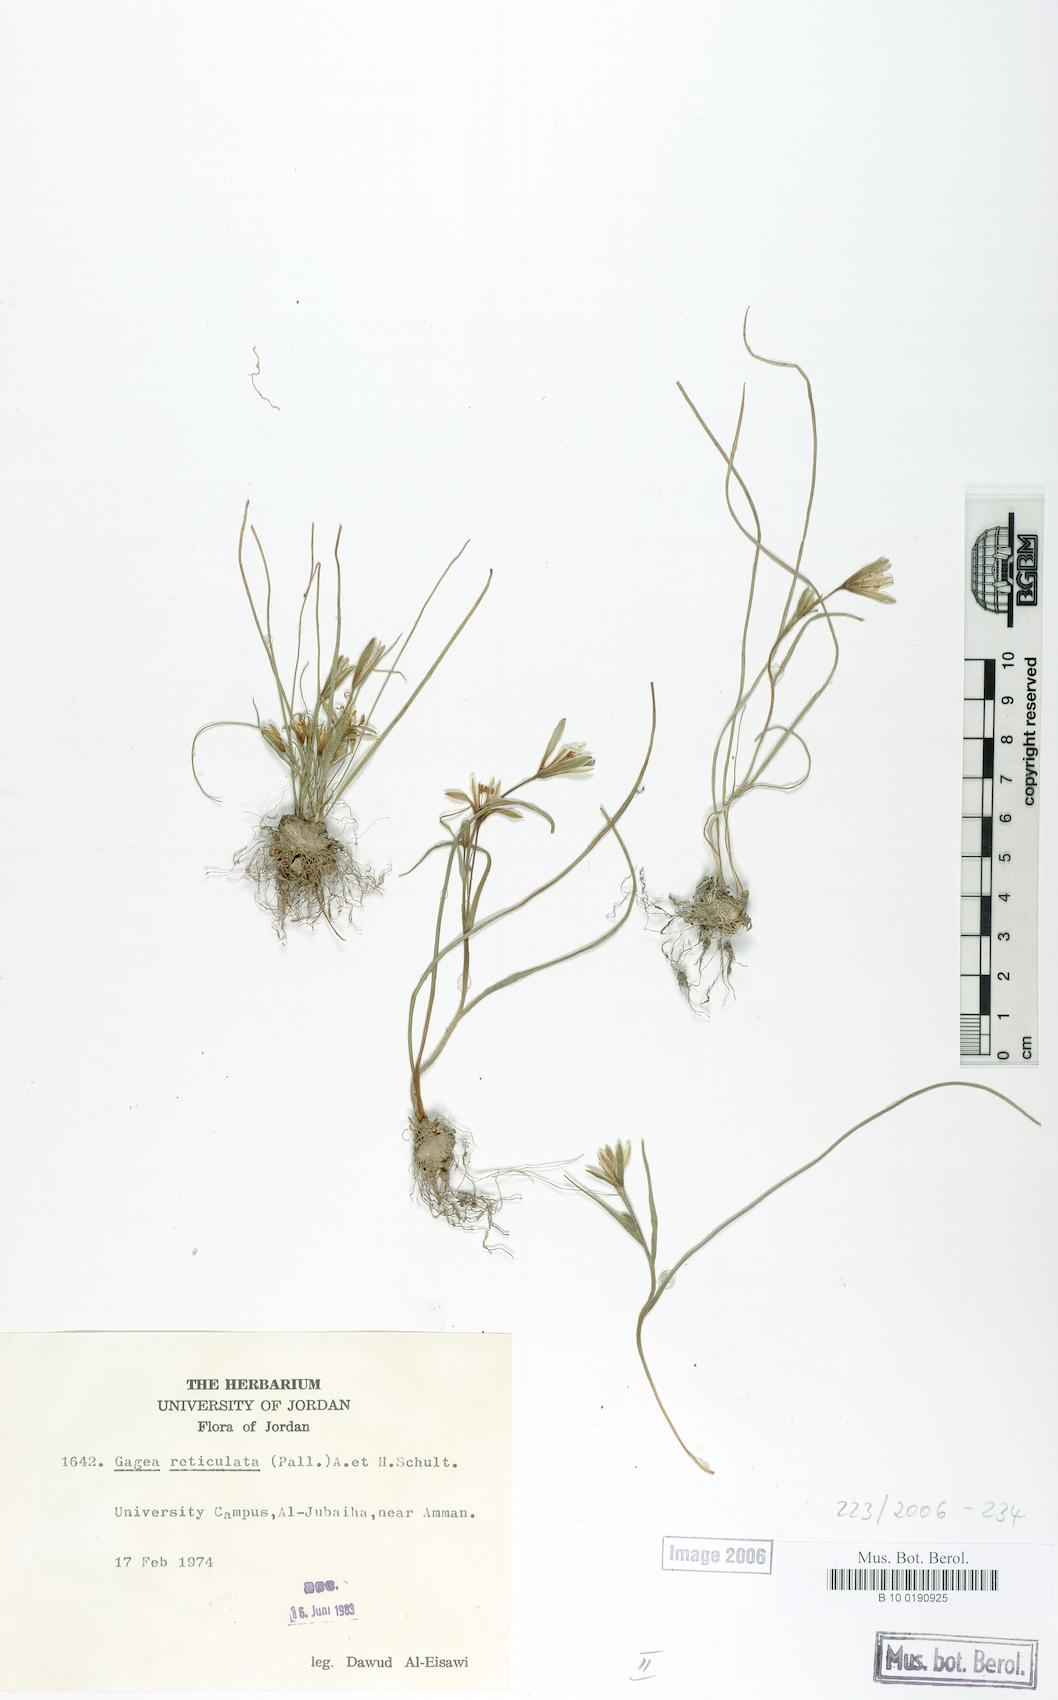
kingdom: Plantae
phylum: Tracheophyta
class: Liliopsida
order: Liliales
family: Liliaceae
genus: Gagea
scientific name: Gagea reticulata
